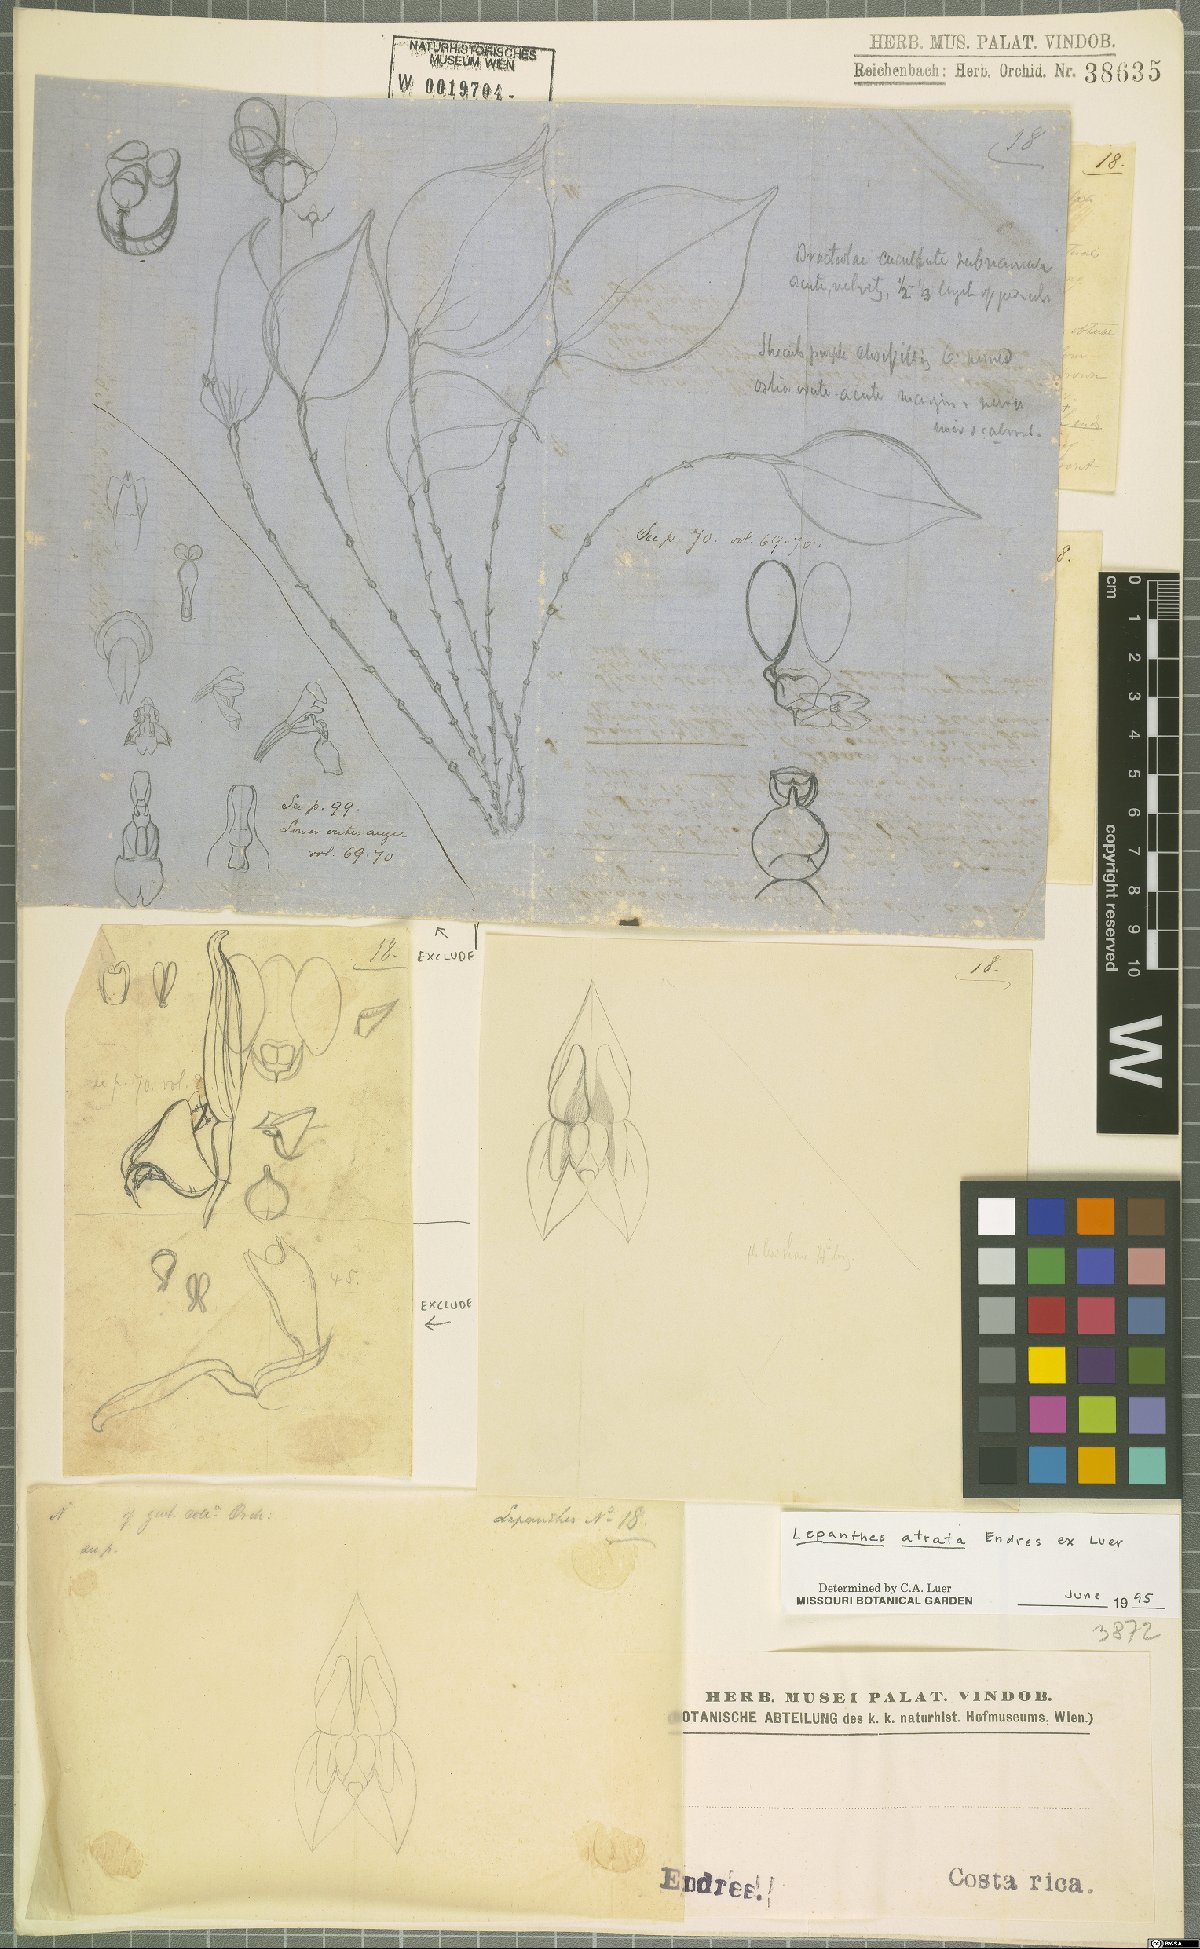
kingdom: Plantae
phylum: Tracheophyta
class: Liliopsida
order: Asparagales
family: Orchidaceae
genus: Lepanthes
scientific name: Lepanthes atrata
